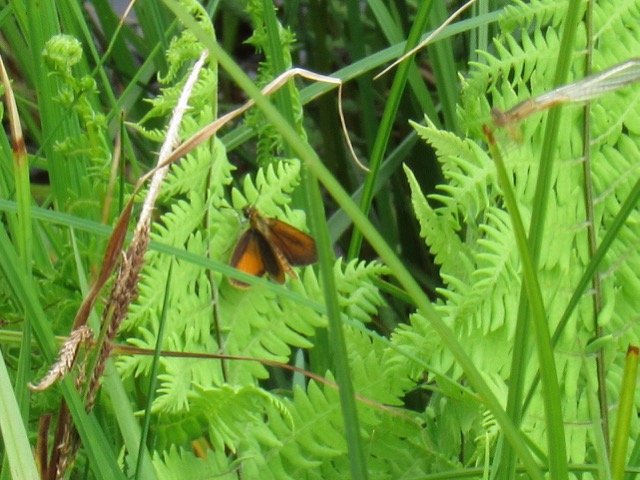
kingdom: Animalia
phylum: Arthropoda
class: Insecta
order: Lepidoptera
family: Hesperiidae
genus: Ancyloxypha
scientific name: Ancyloxypha numitor
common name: Least Skipper
